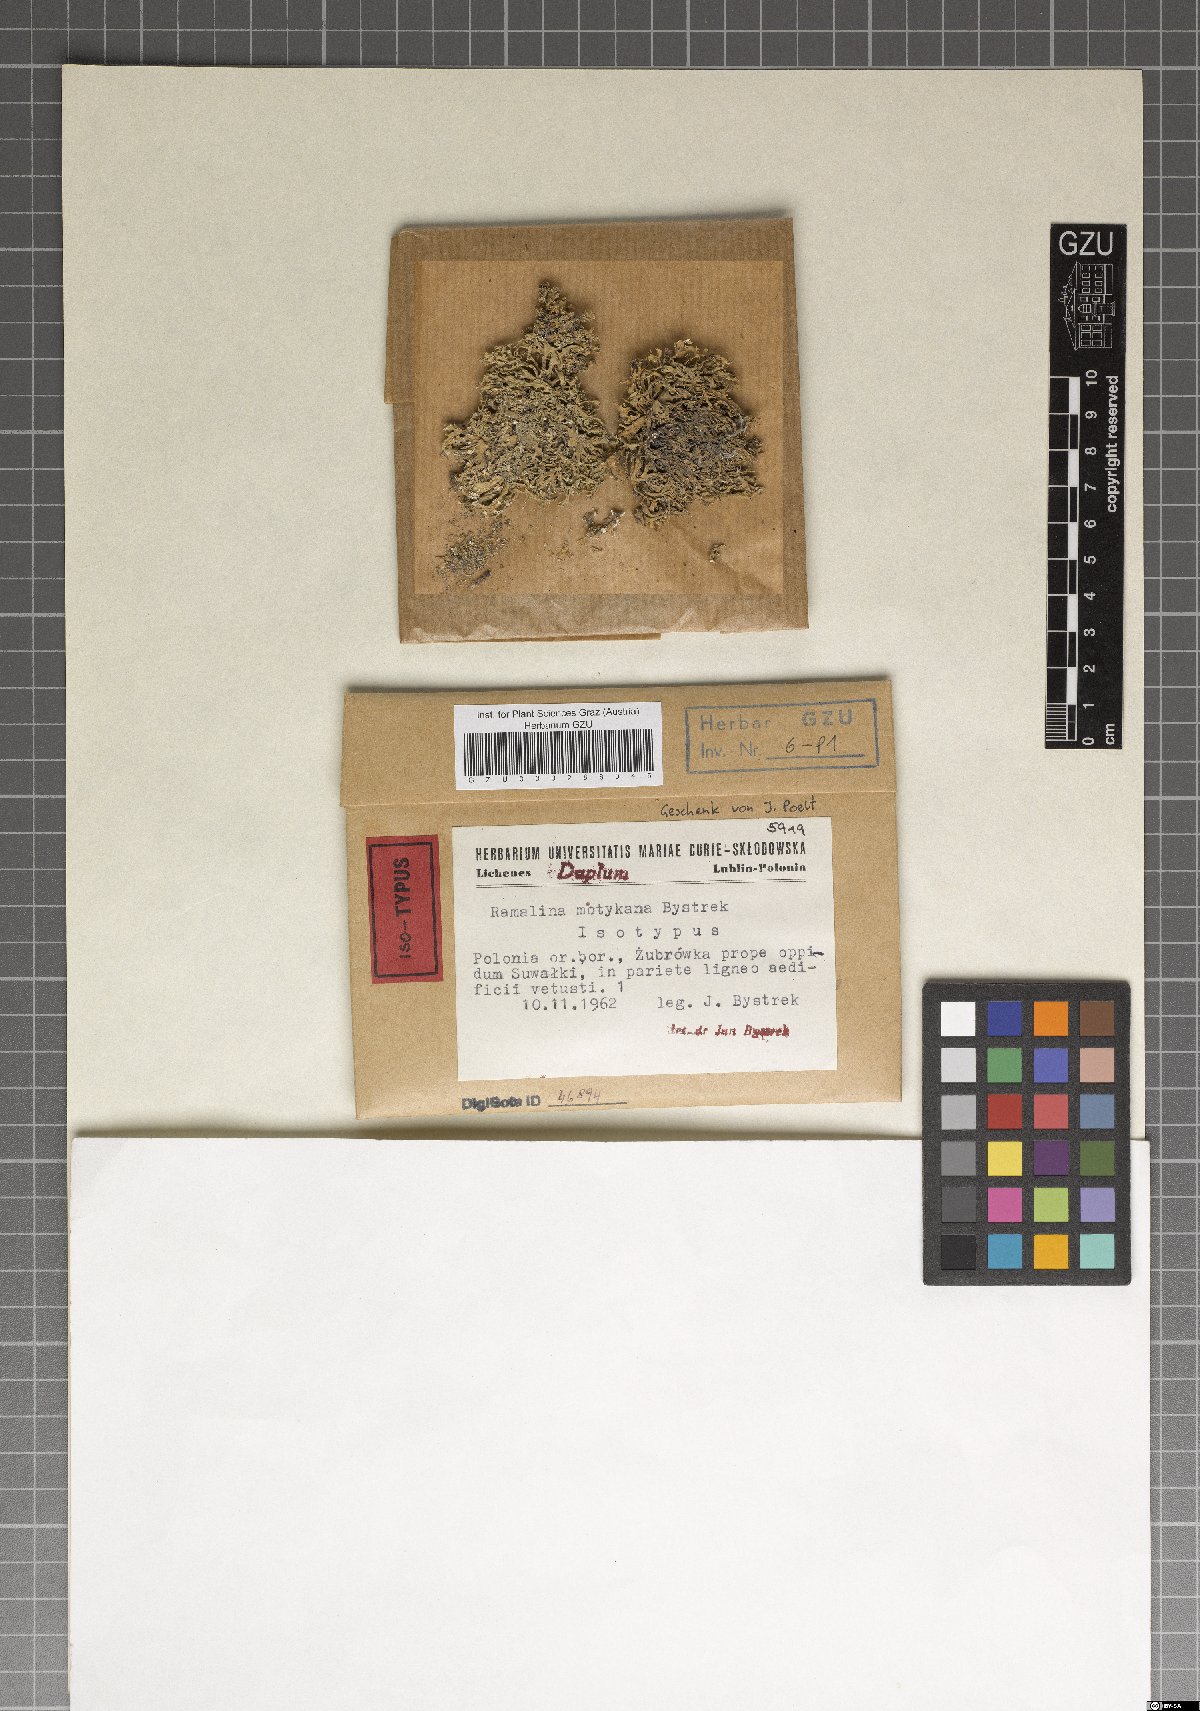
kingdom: Fungi
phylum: Ascomycota
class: Lecanoromycetes
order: Lecanorales
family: Ramalinaceae
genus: Ramalina
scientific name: Ramalina motykana
